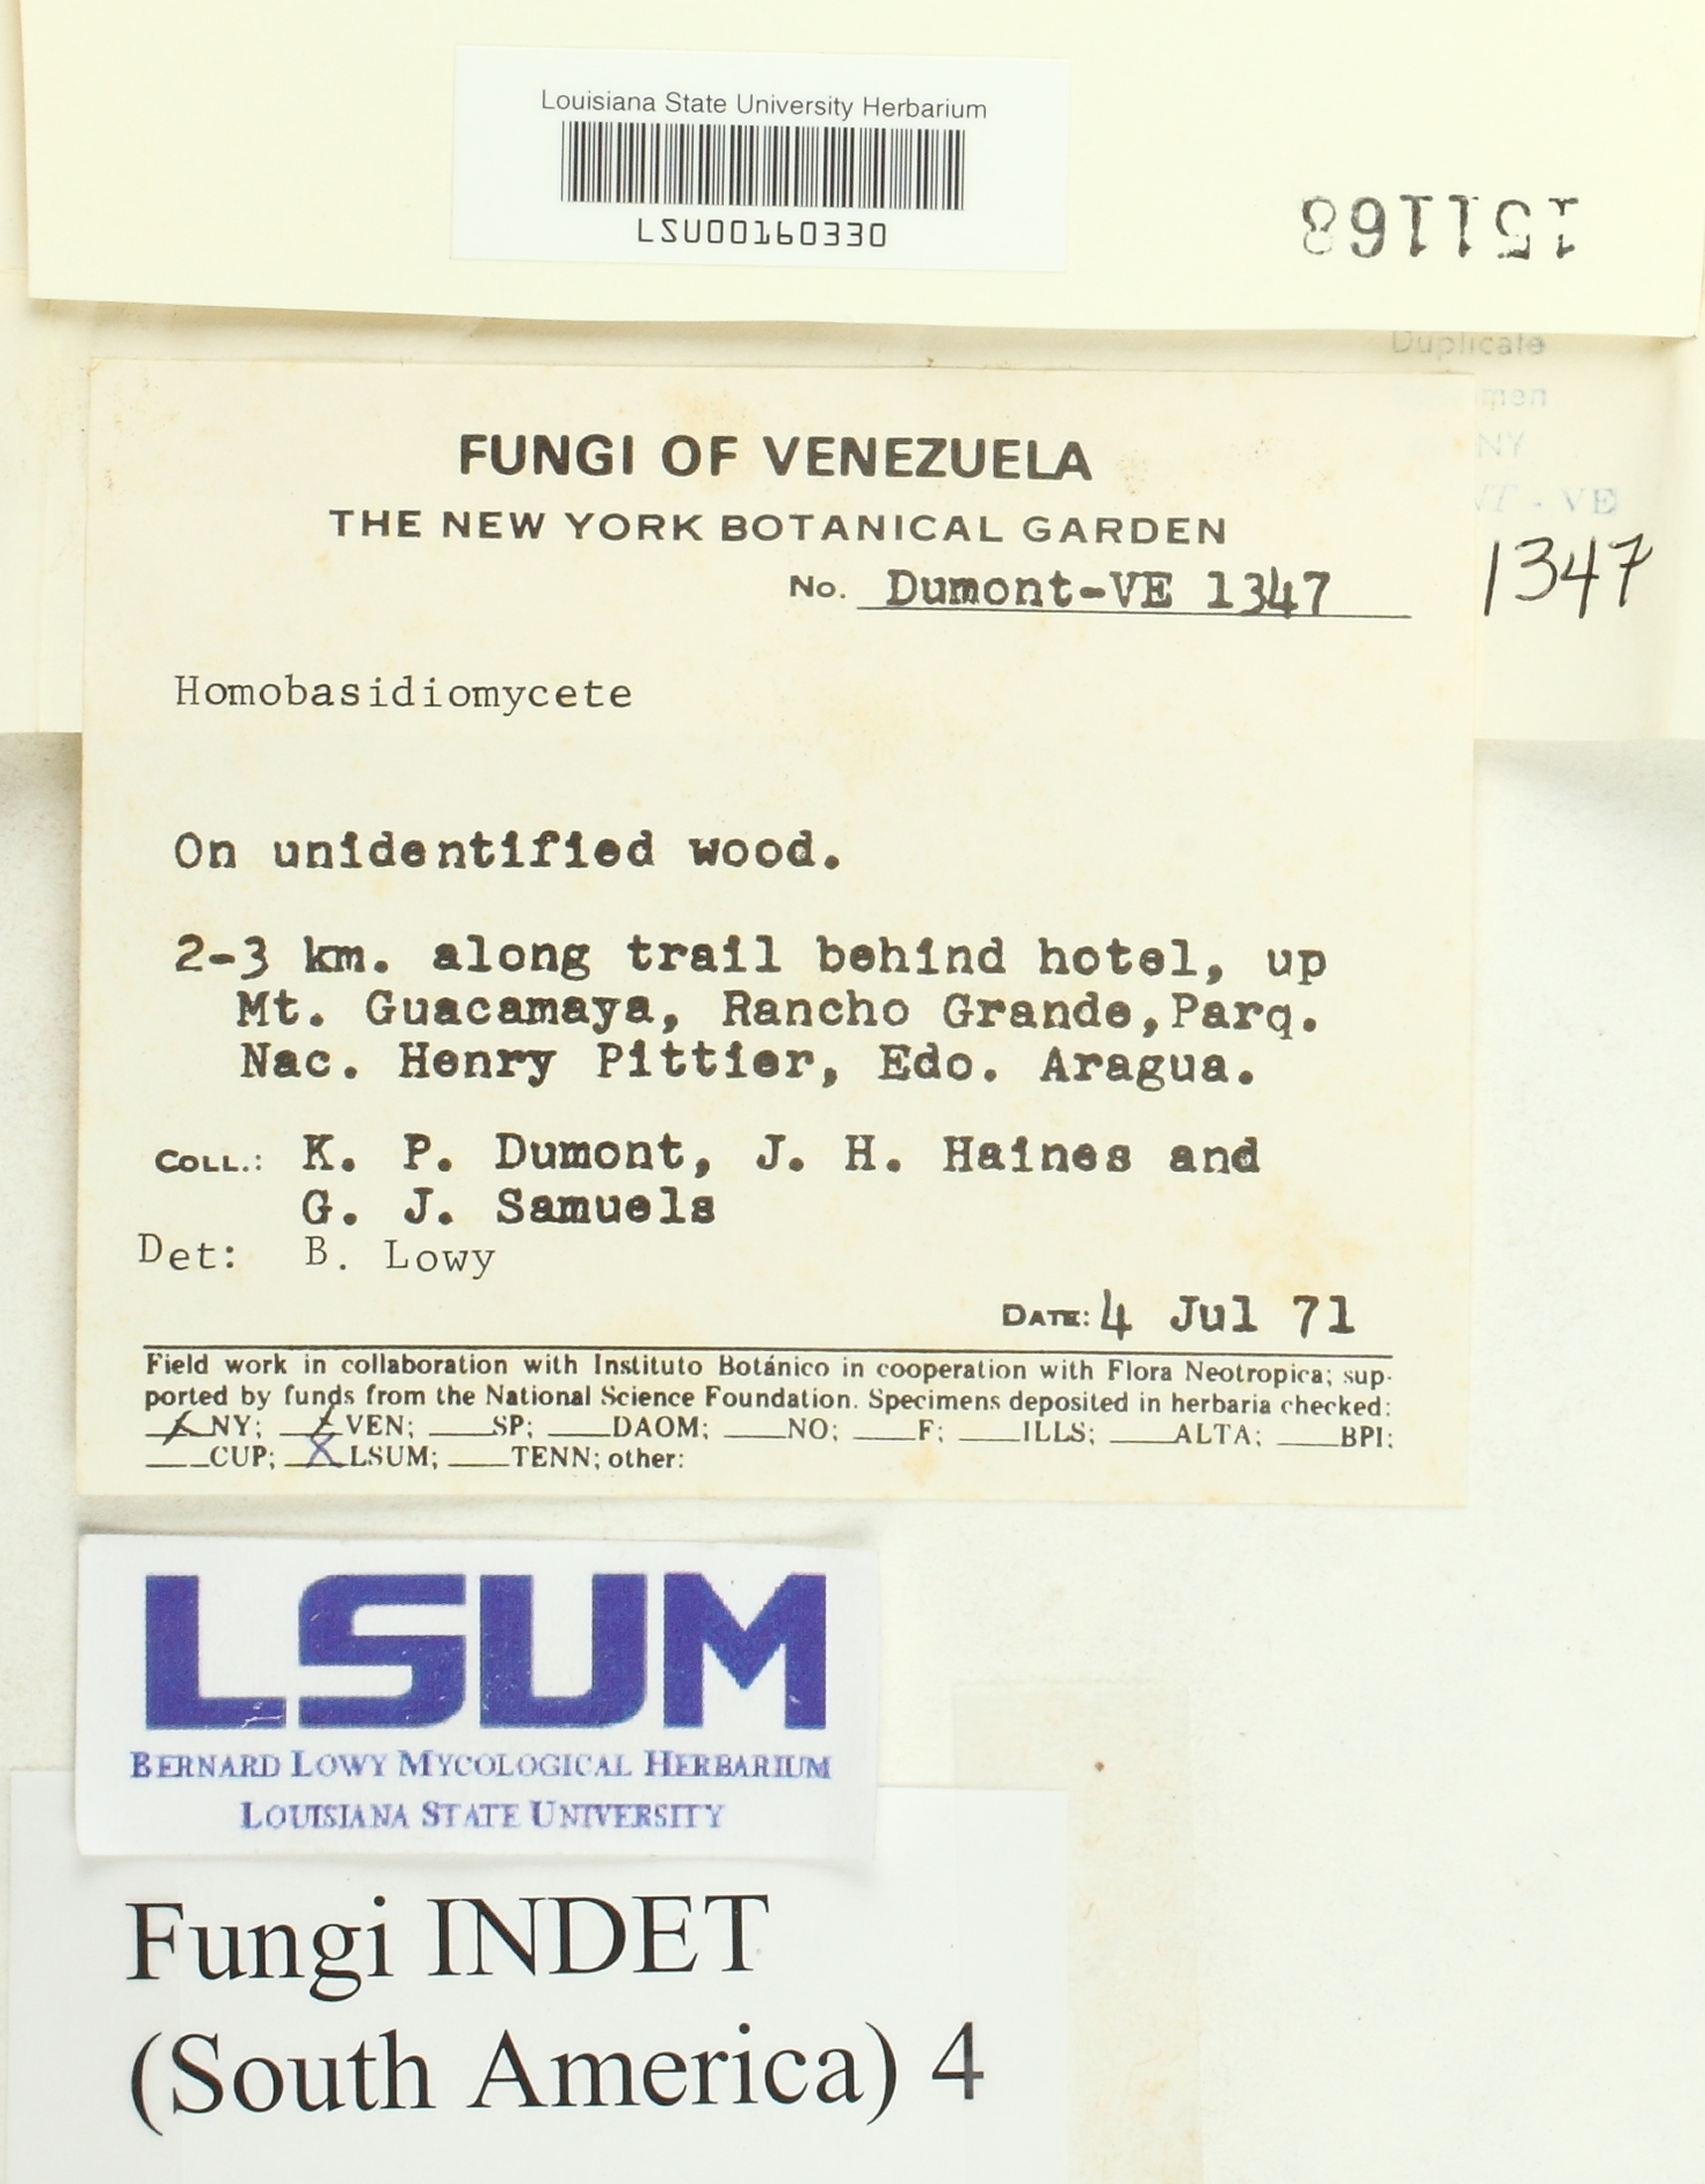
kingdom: Fungi
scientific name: Fungi
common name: Fungi
